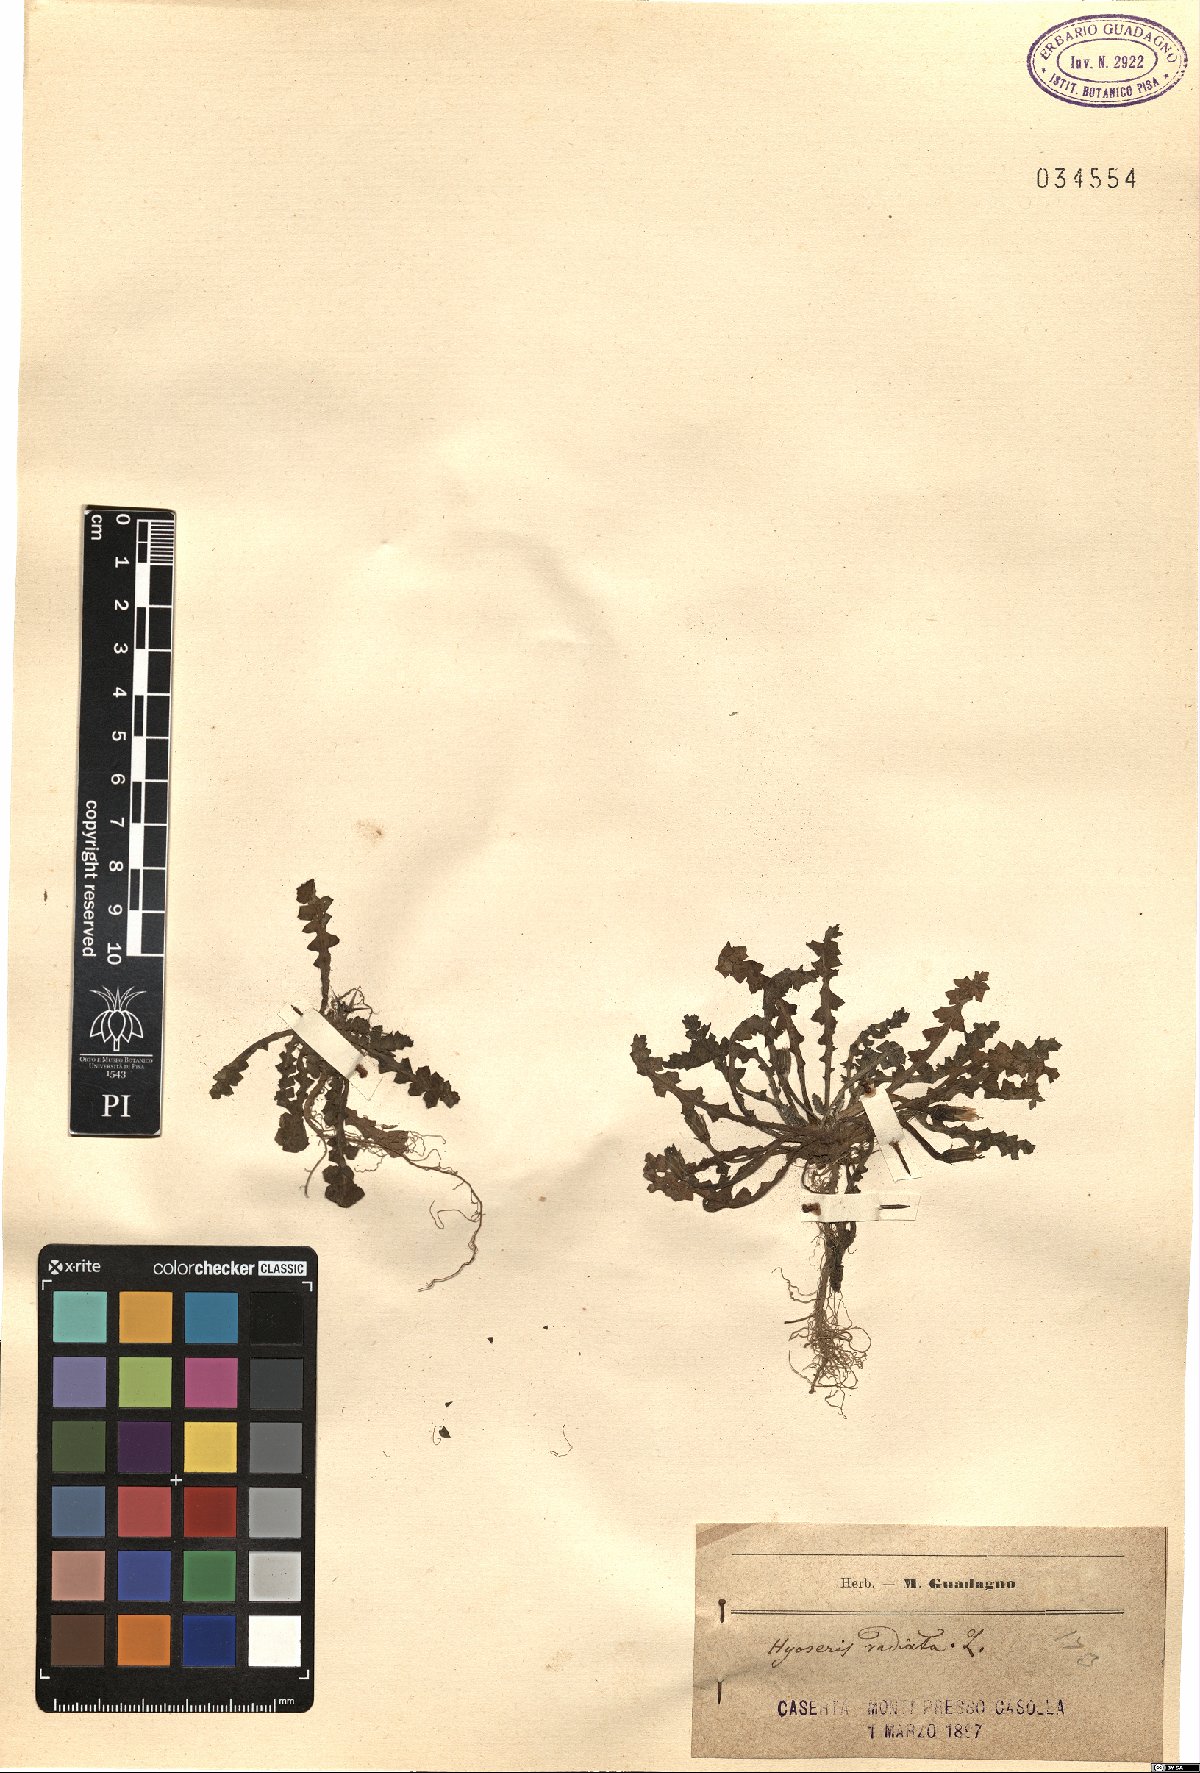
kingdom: Plantae
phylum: Tracheophyta
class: Magnoliopsida
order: Asterales
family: Asteraceae
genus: Hyoseris
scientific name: Hyoseris radiata
